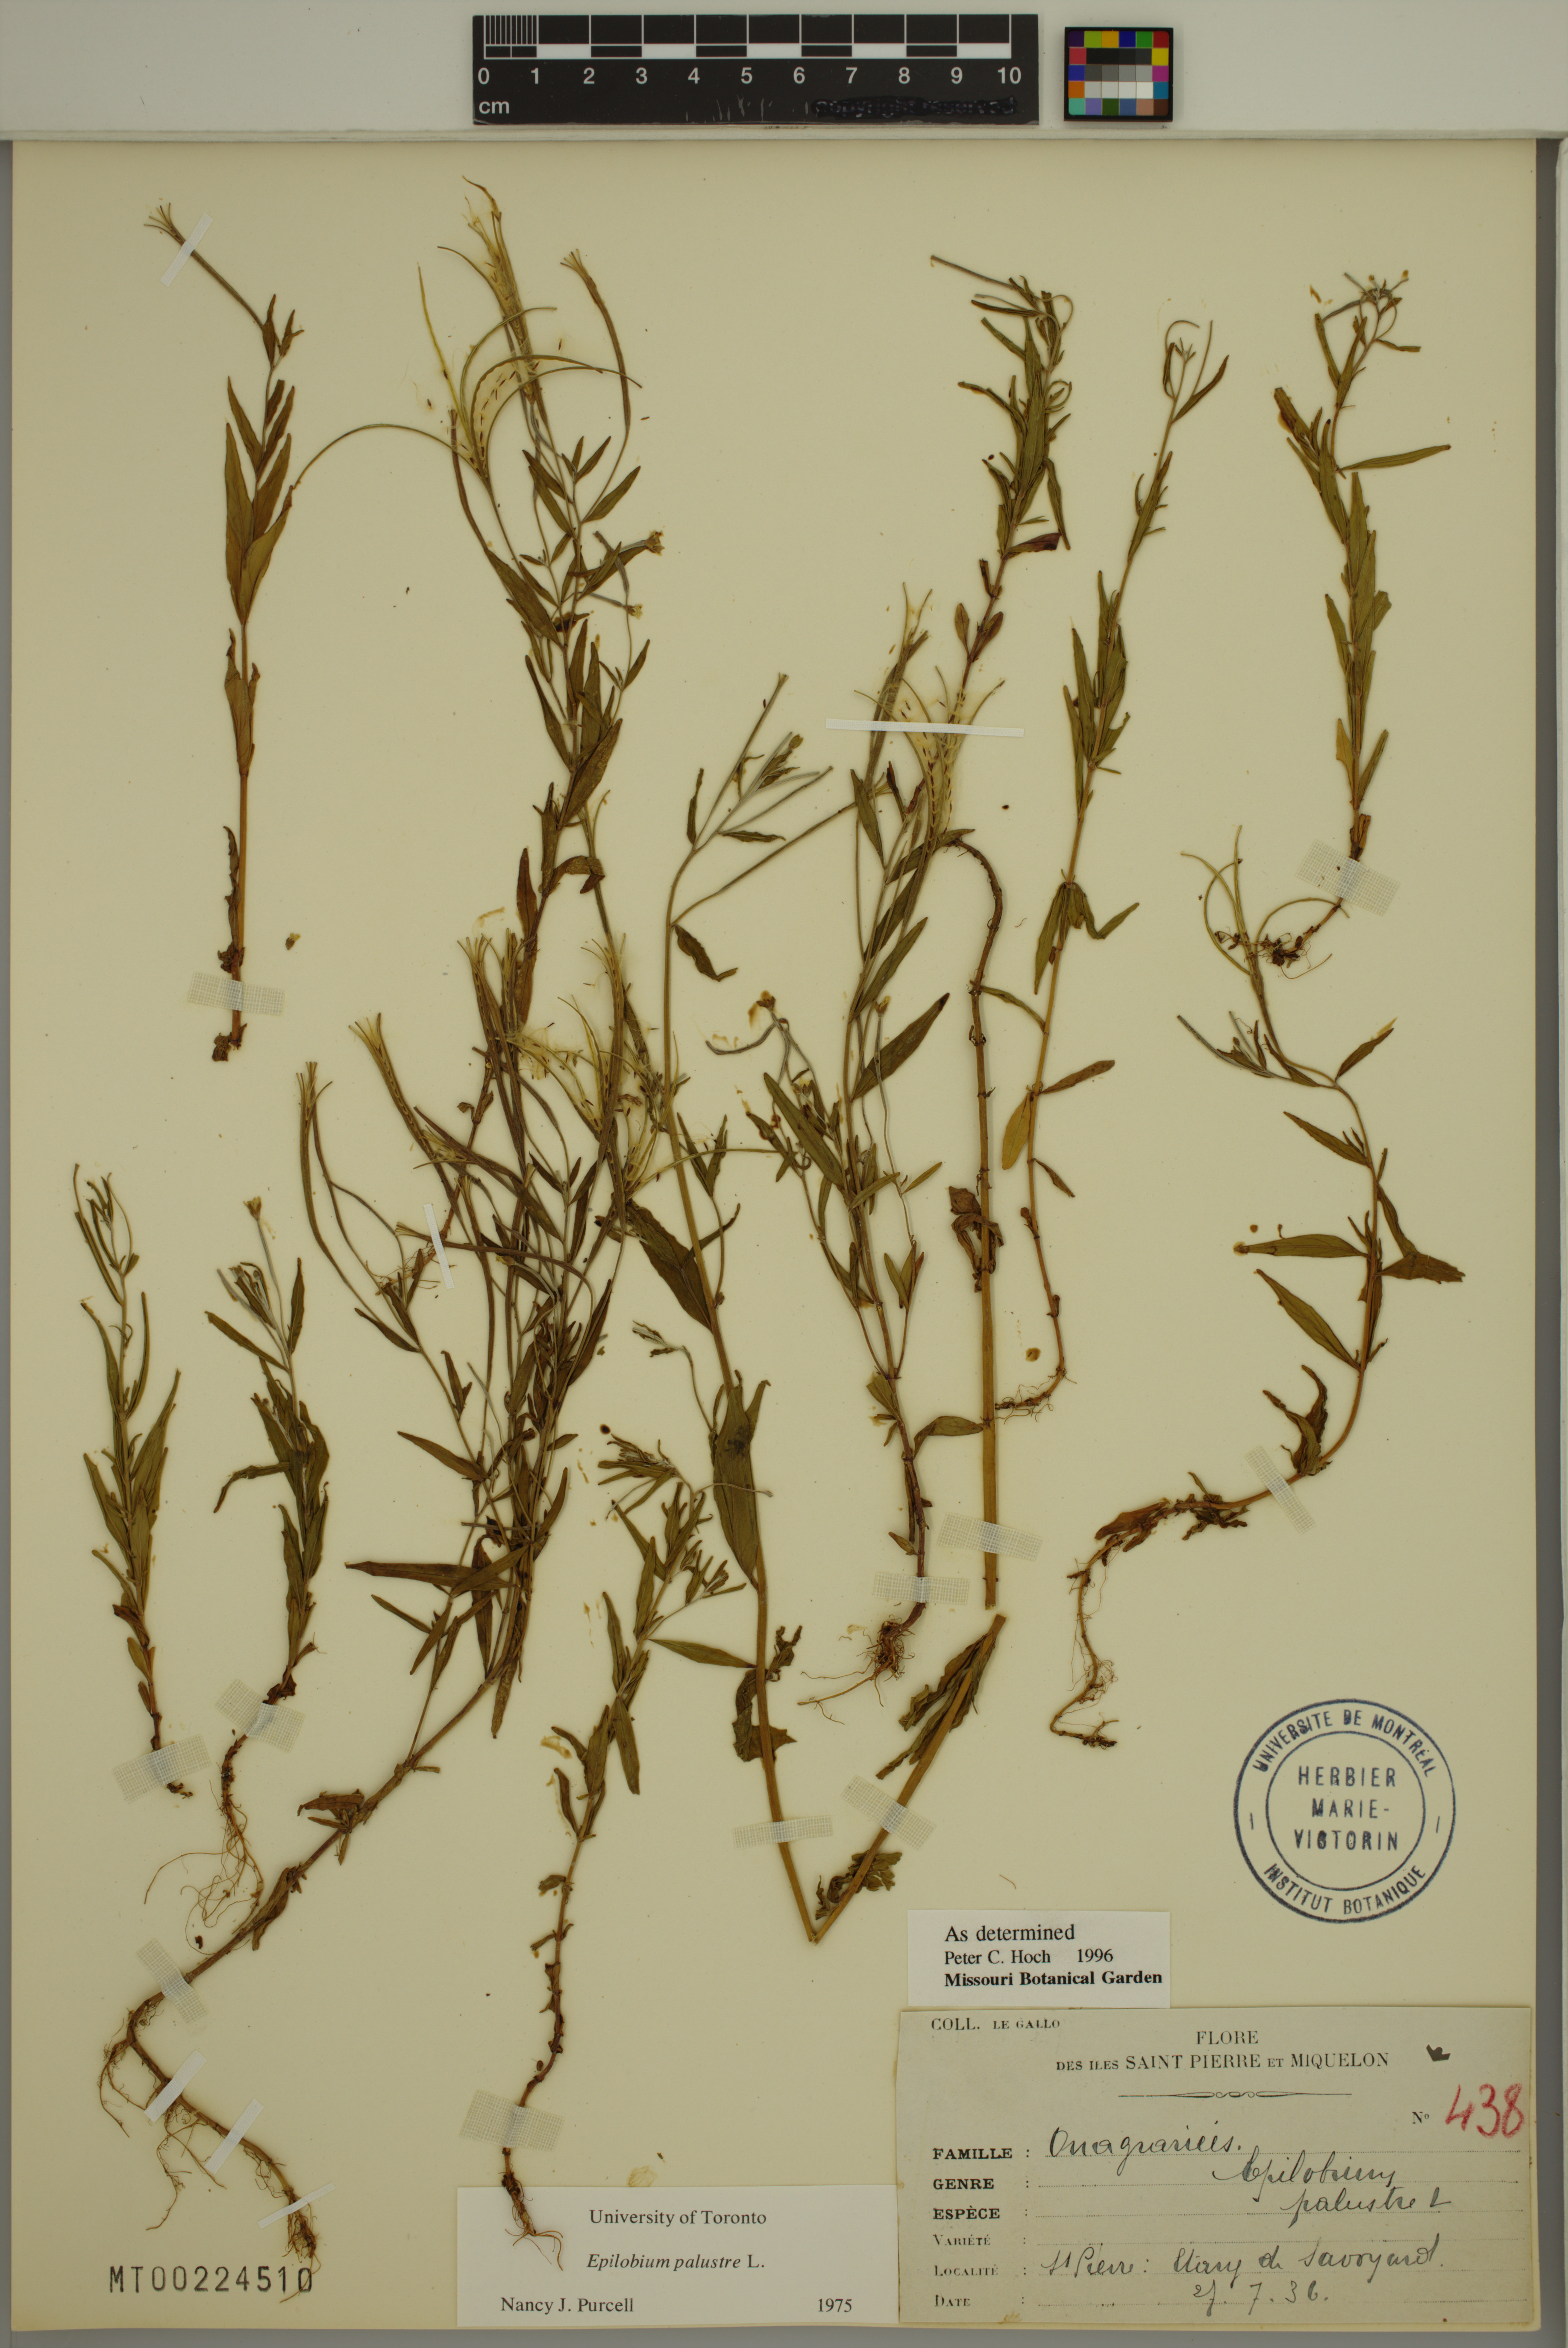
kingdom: Plantae
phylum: Tracheophyta
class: Magnoliopsida
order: Myrtales
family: Onagraceae
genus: Epilobium
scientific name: Epilobium palustre
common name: Marsh willowherb
